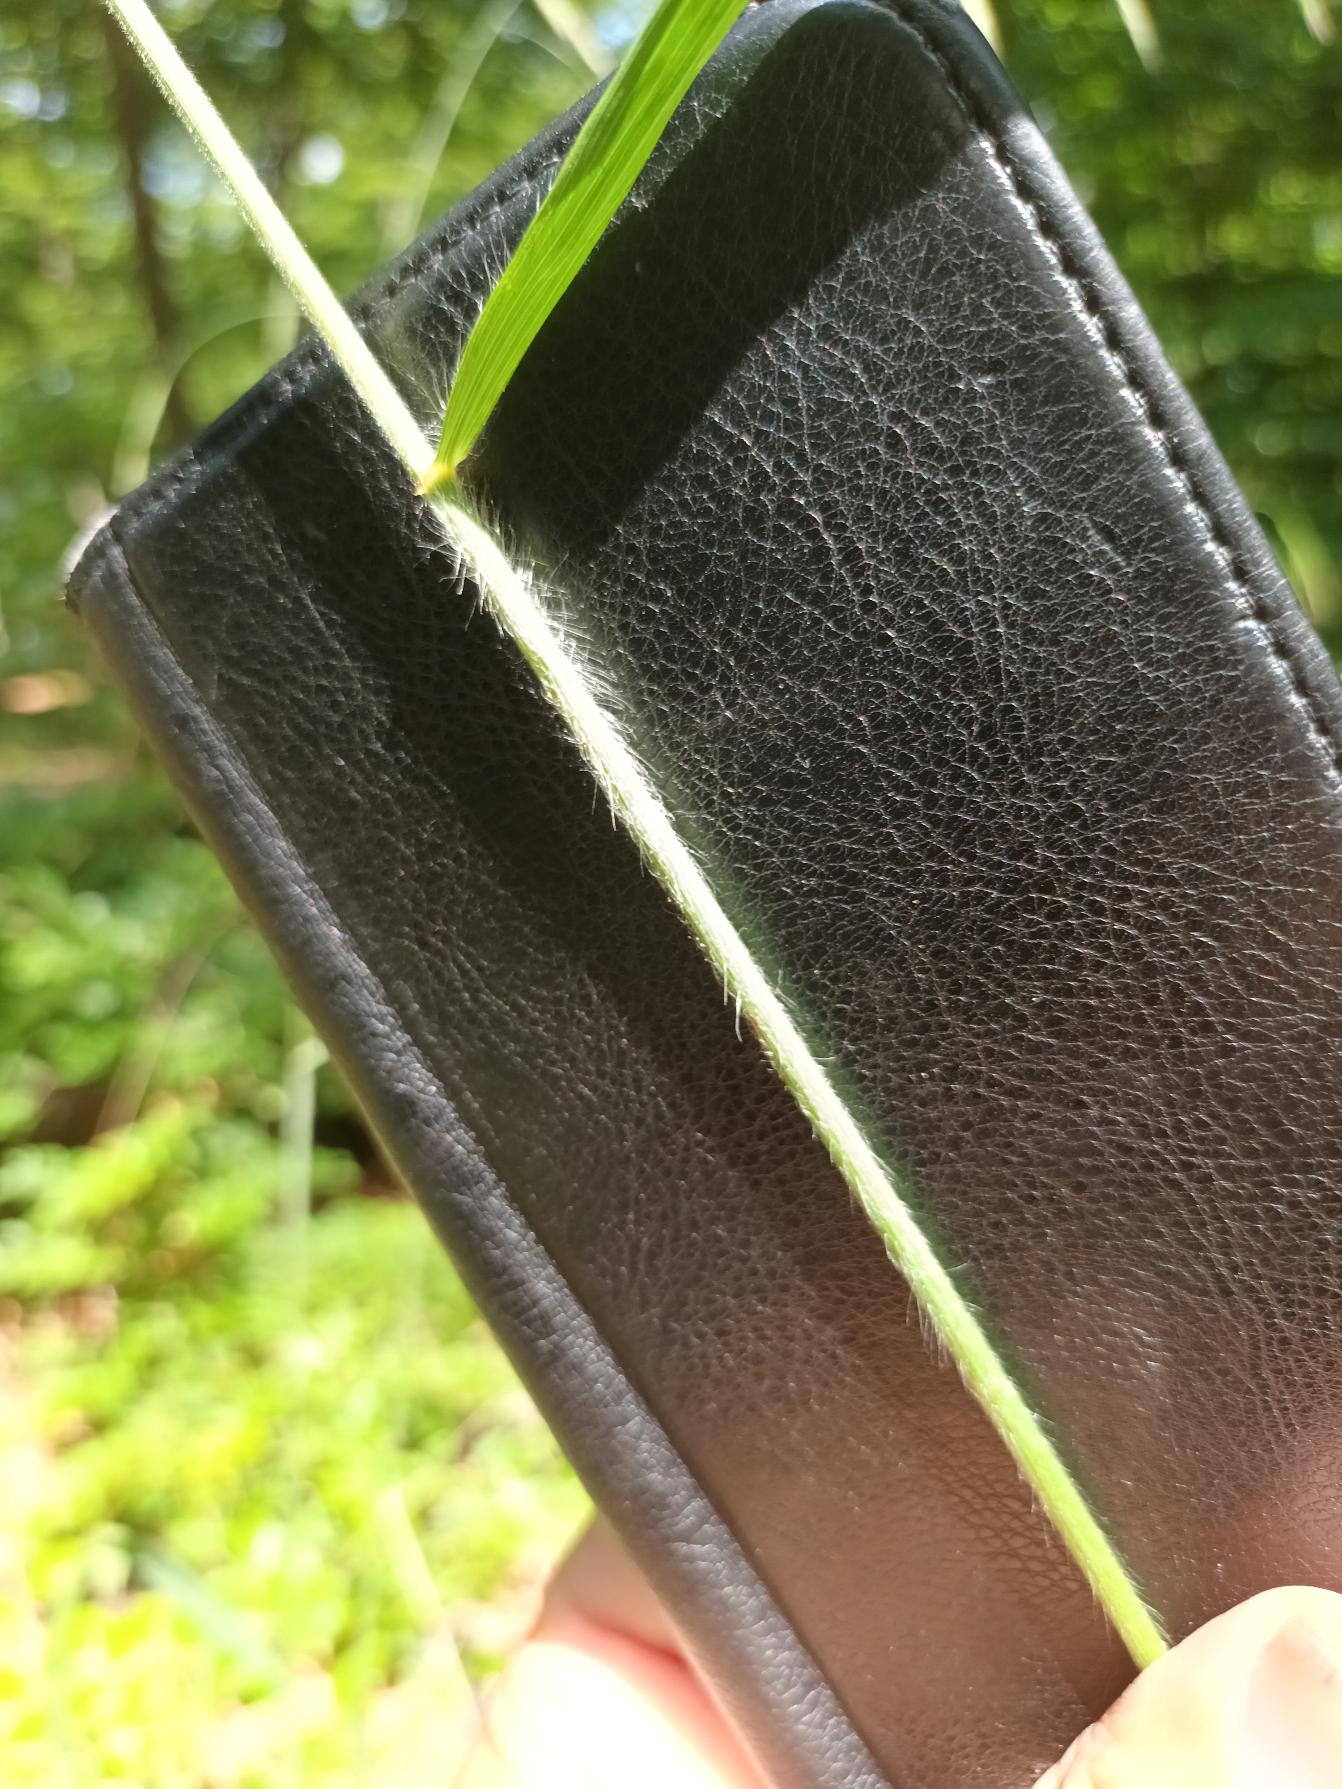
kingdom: Plantae
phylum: Tracheophyta
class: Liliopsida
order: Poales
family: Poaceae
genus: Bromus
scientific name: Bromus ramosus
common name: Sildig skov-hejre
